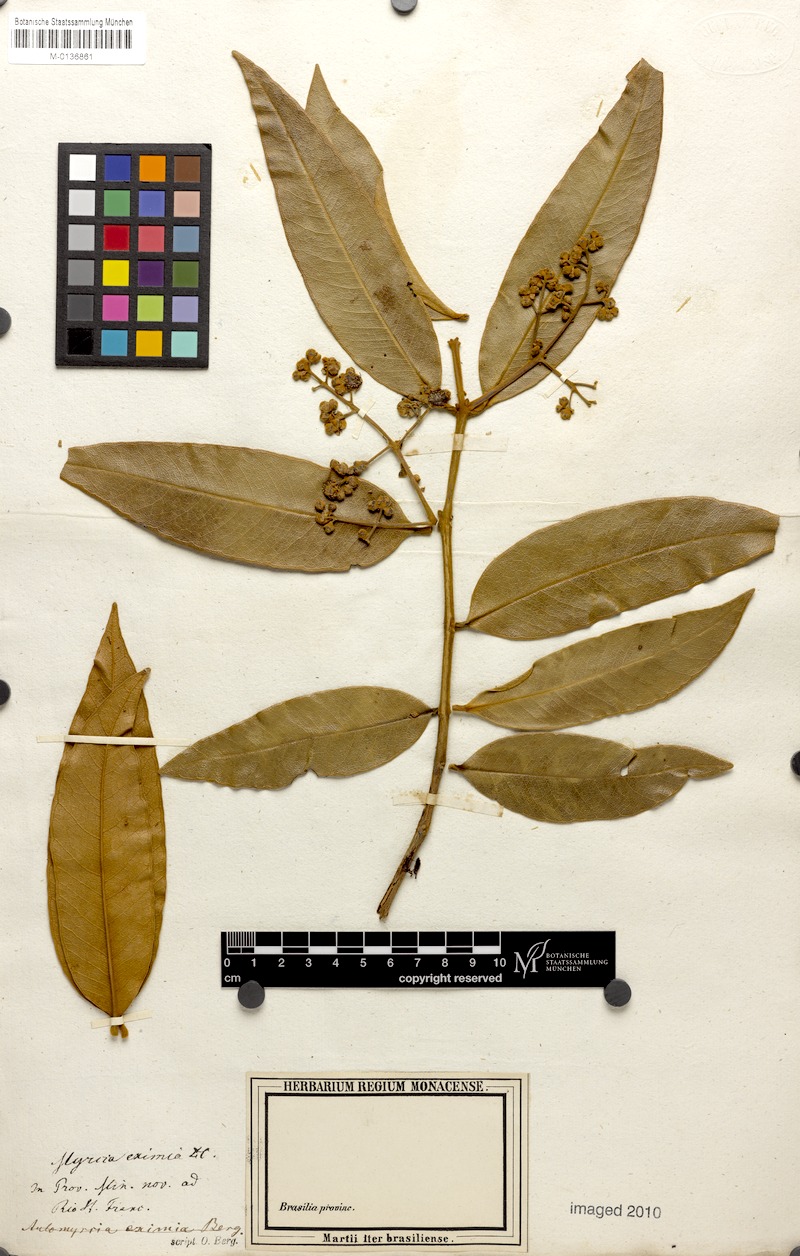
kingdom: Plantae
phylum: Tracheophyta
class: Magnoliopsida
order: Myrtales
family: Myrtaceae
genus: Myrcia
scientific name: Myrcia eximia
